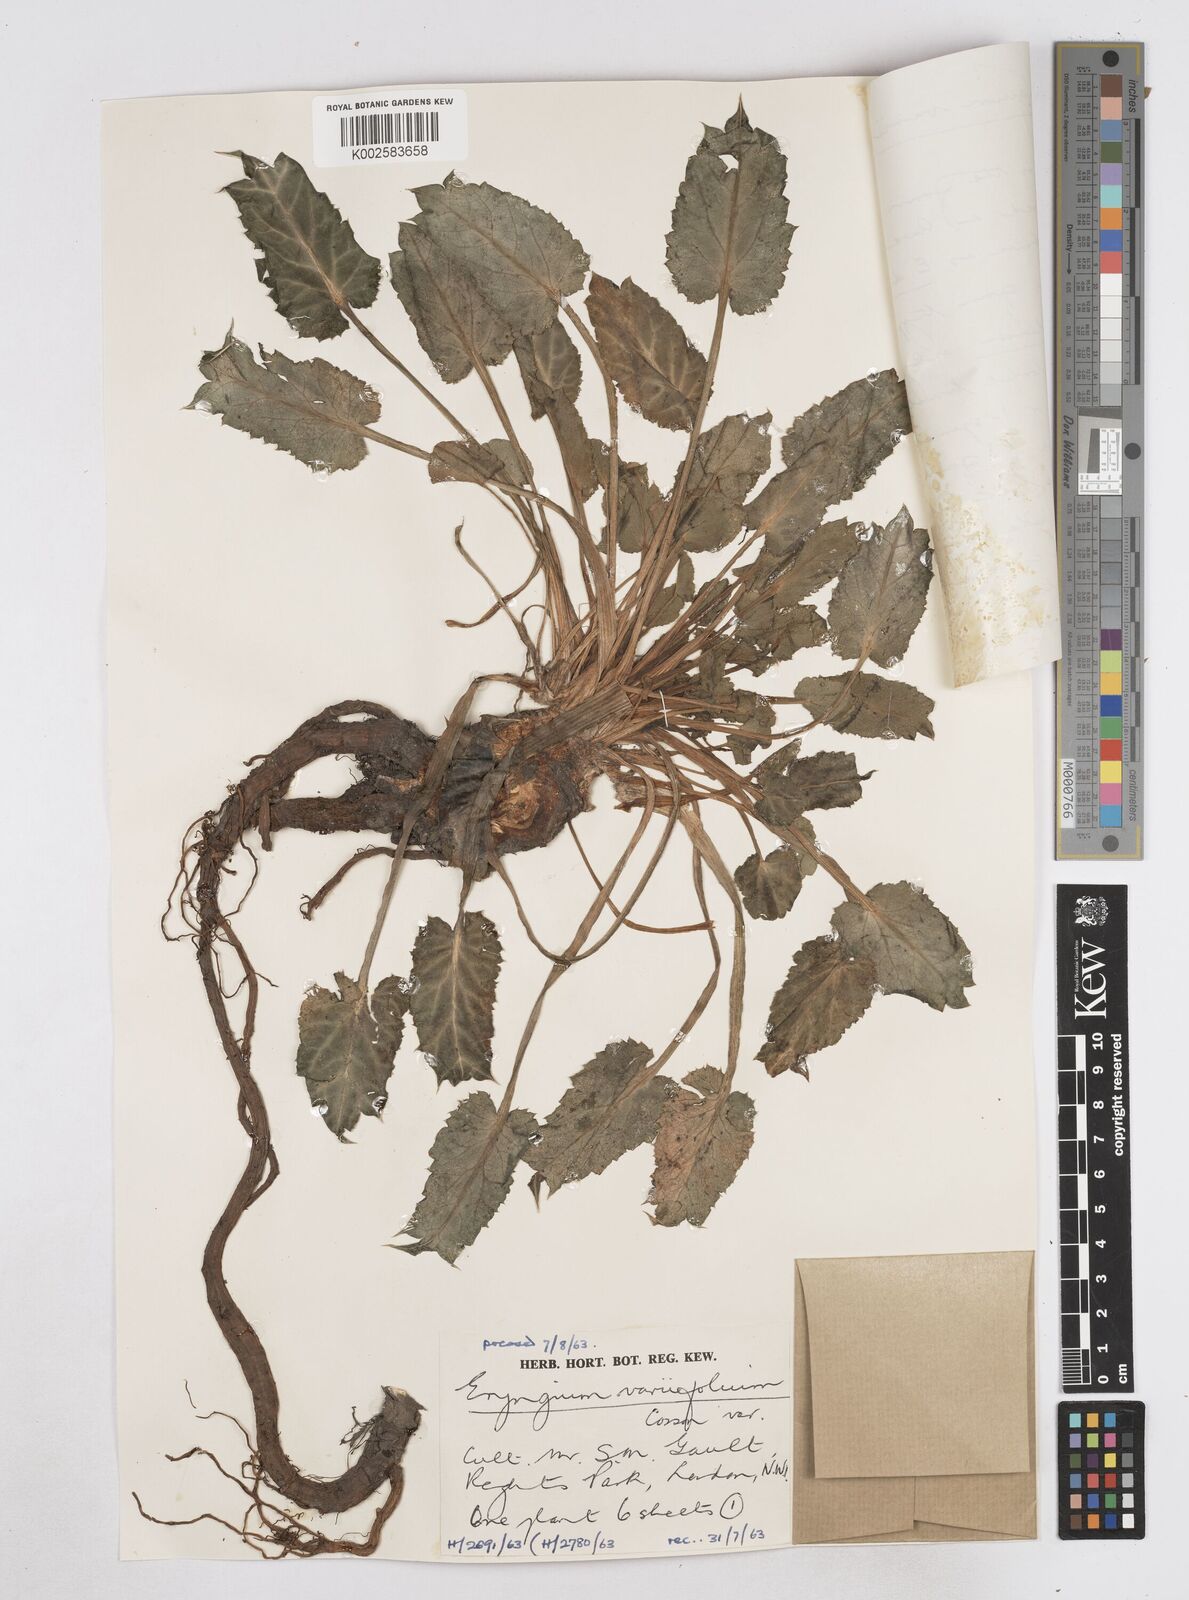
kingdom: Plantae
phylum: Tracheophyta
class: Magnoliopsida
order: Apiales
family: Apiaceae
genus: Eryngium
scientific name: Eryngium variifolium
